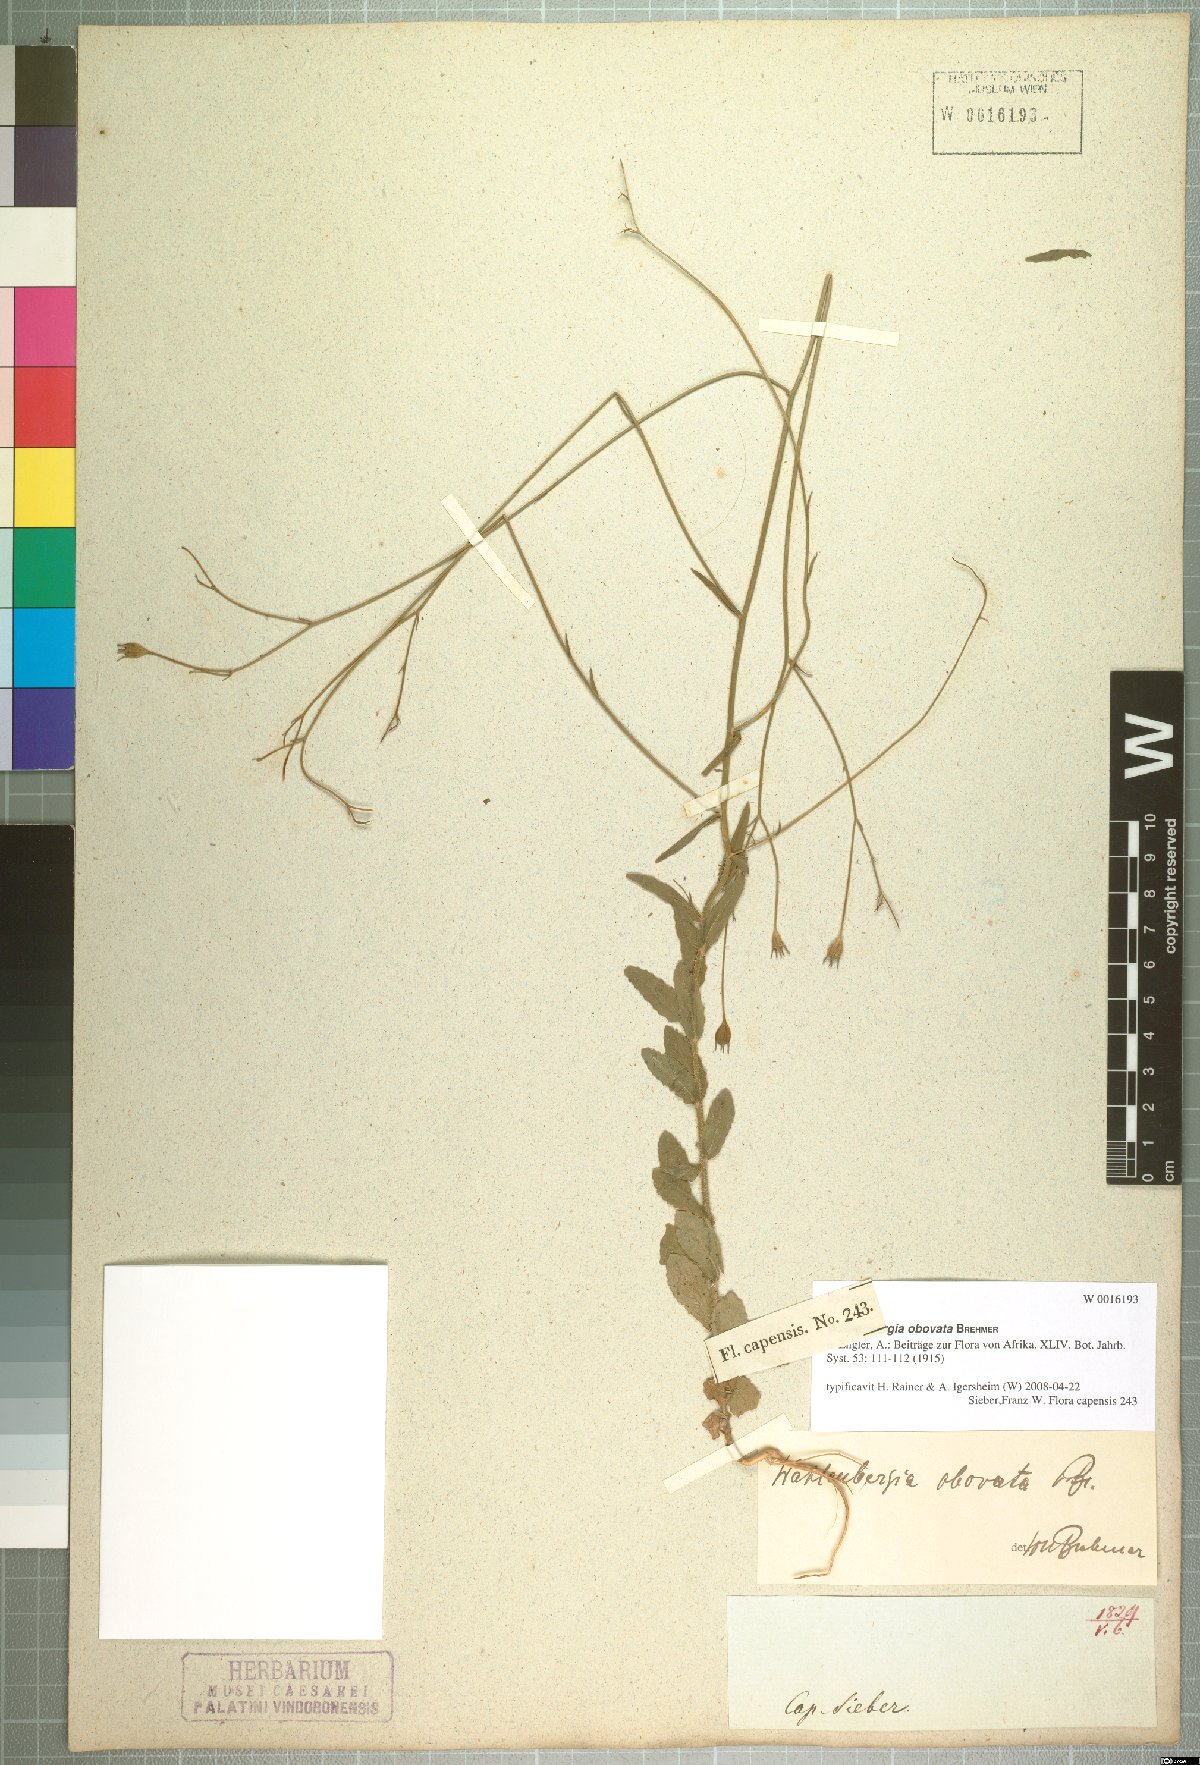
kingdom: Plantae
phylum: Tracheophyta
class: Magnoliopsida
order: Asterales
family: Campanulaceae
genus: Wahlenbergia
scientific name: Wahlenbergia obovata
